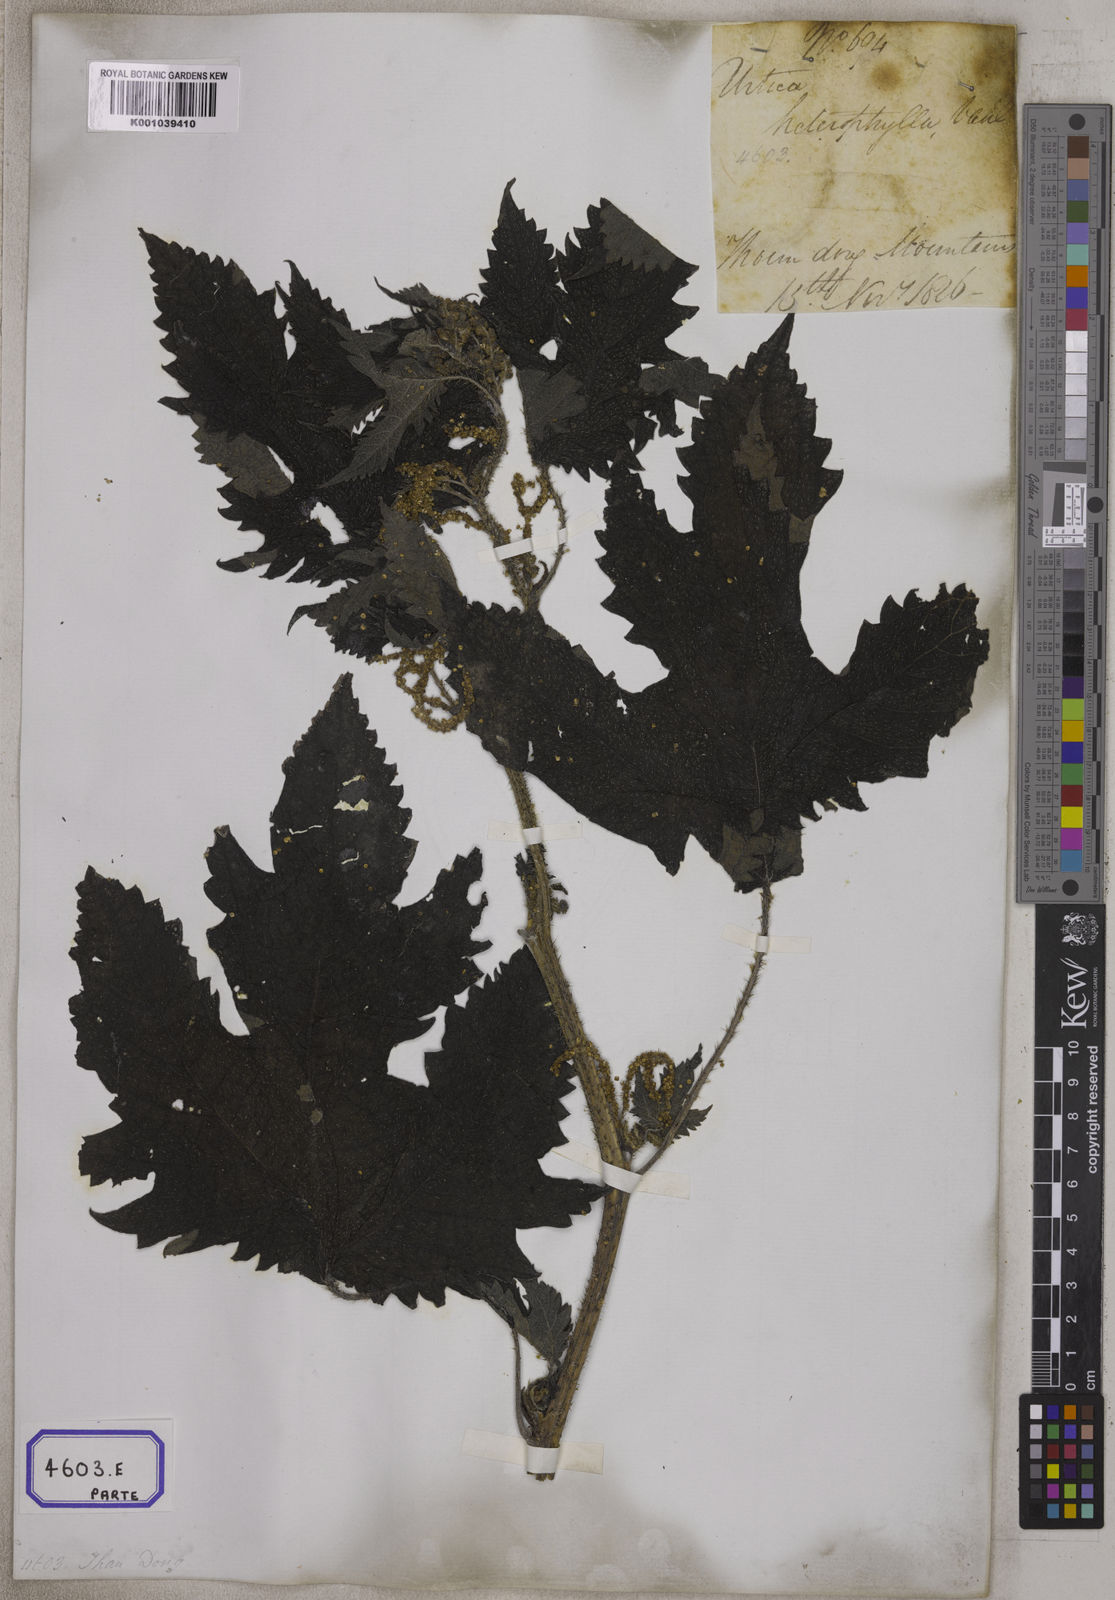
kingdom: Plantae
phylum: Tracheophyta
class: Magnoliopsida
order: Rosales
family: Urticaceae
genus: Girardinia
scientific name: Girardinia diversifolia
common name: Himalayan-nettle
